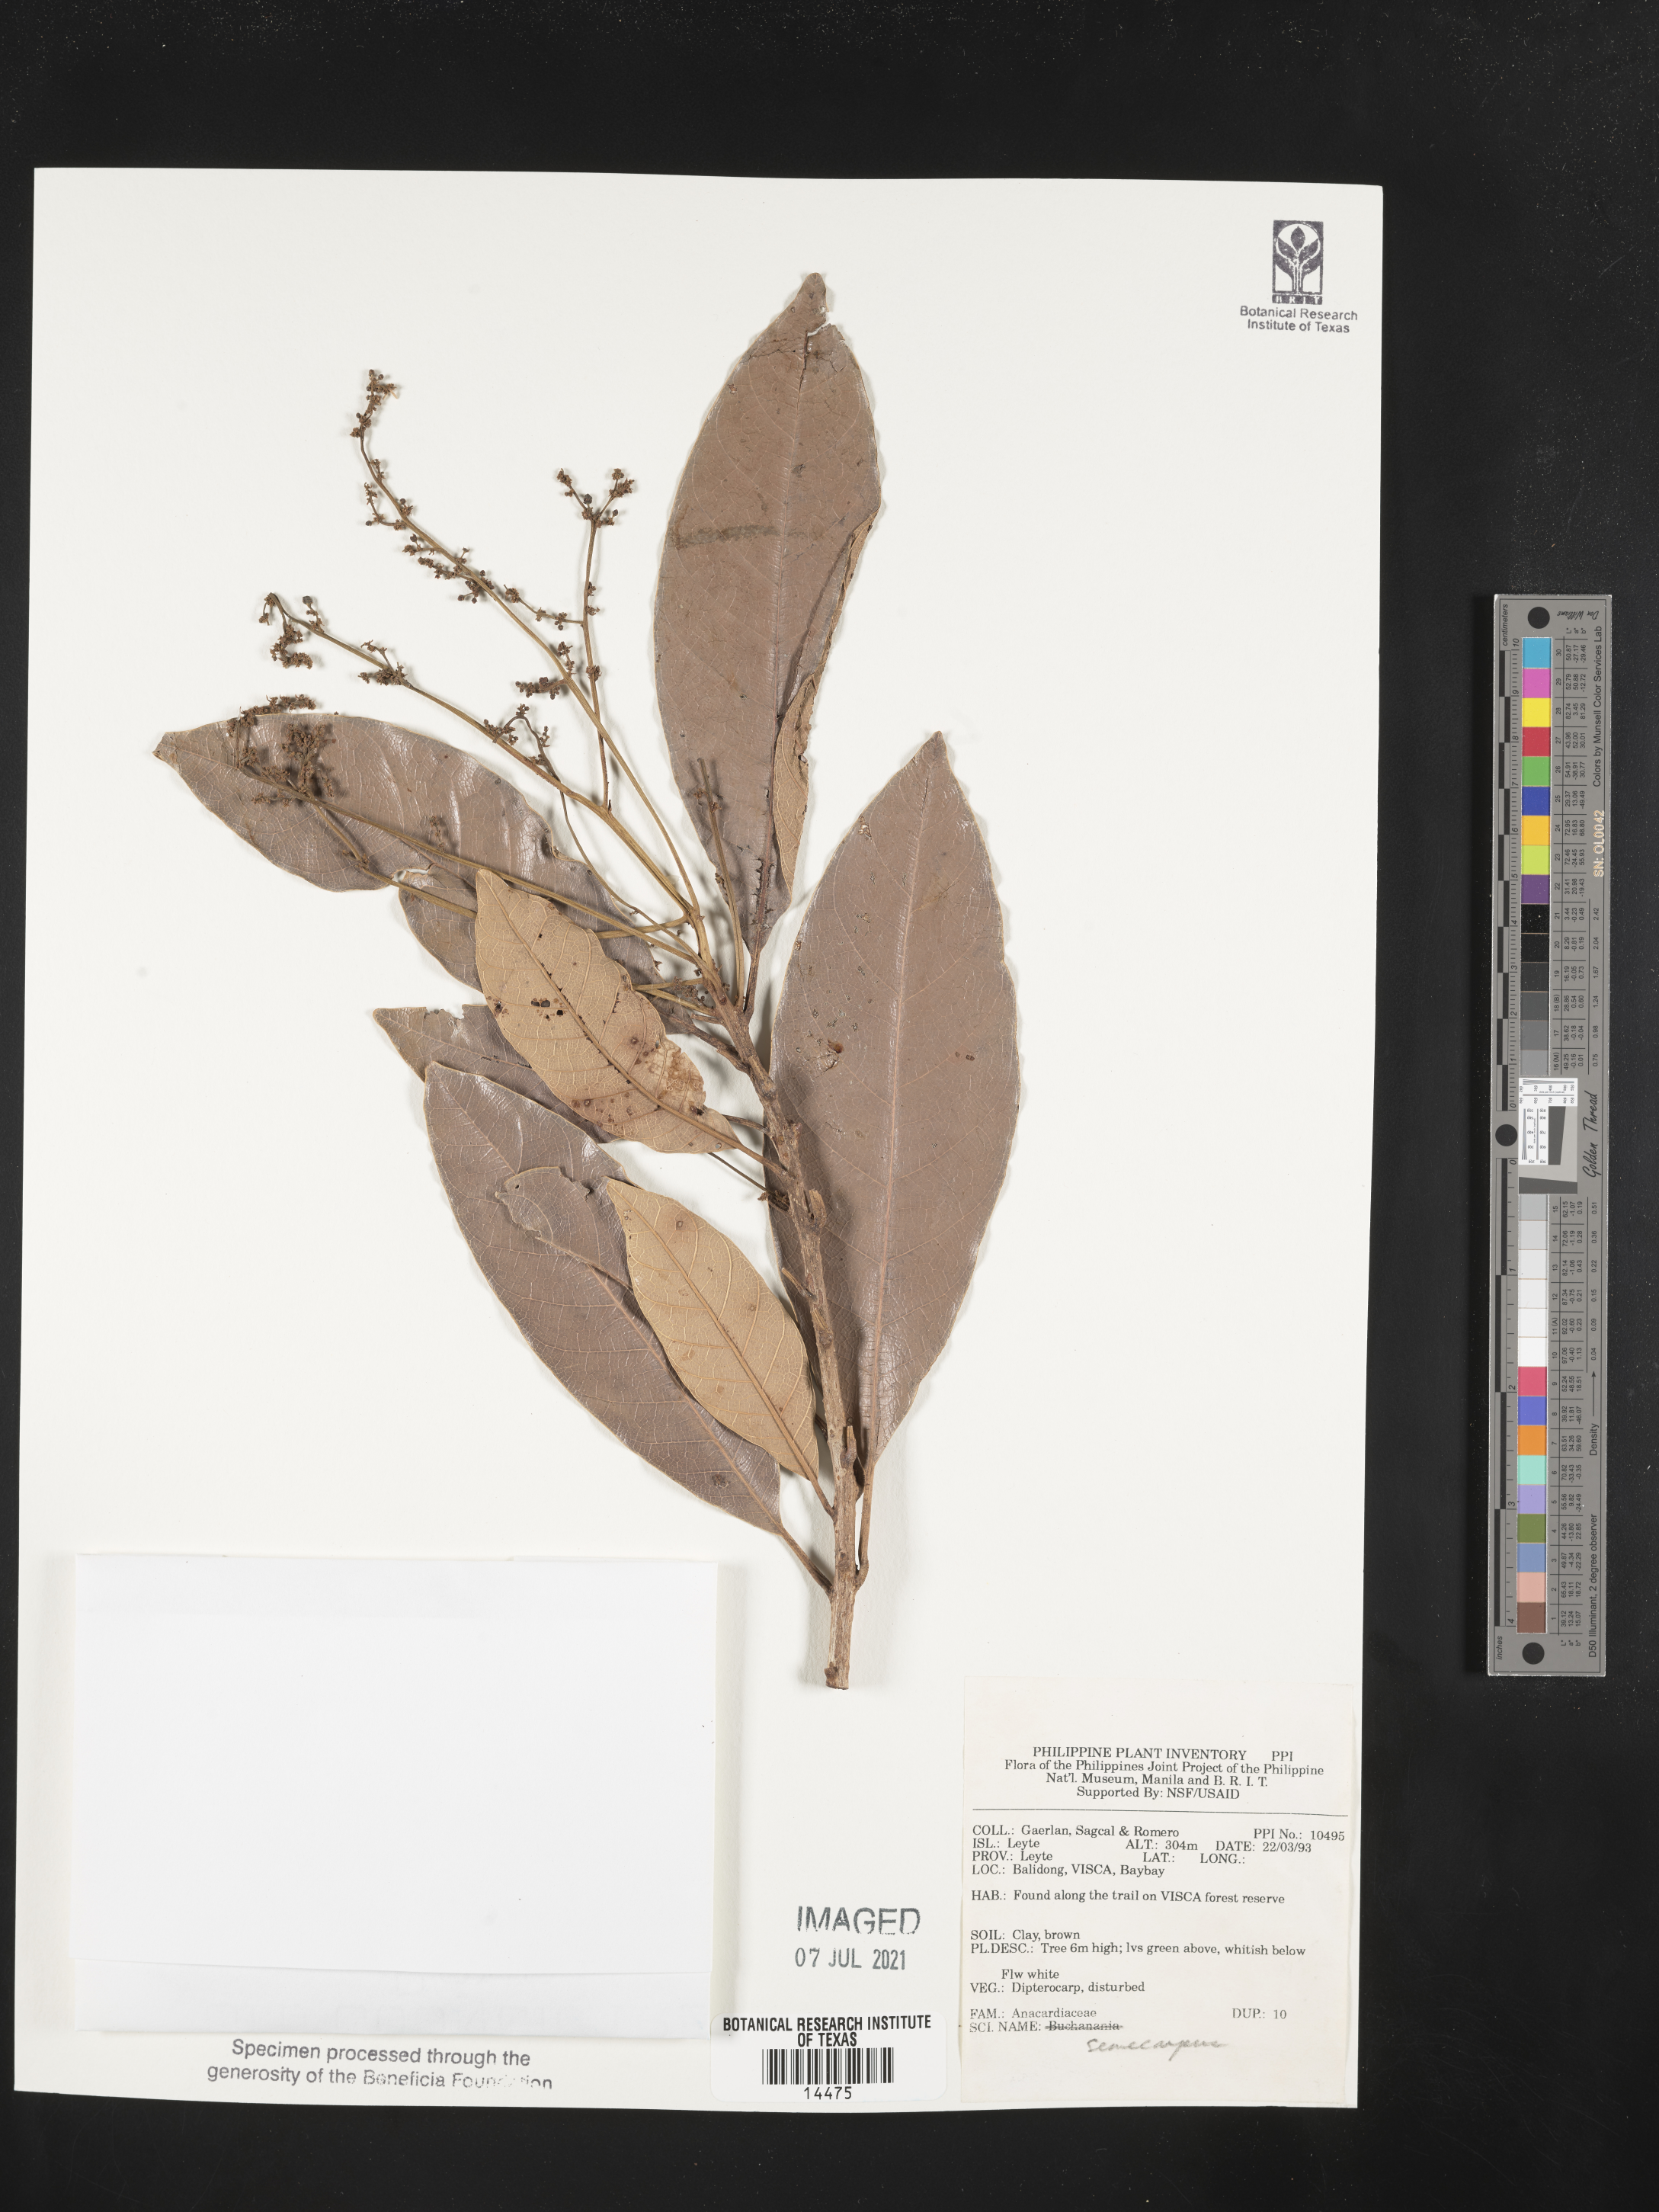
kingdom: Plantae
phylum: Tracheophyta
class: Magnoliopsida
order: Sapindales
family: Anacardiaceae
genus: Semecarpus
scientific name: Semecarpus
